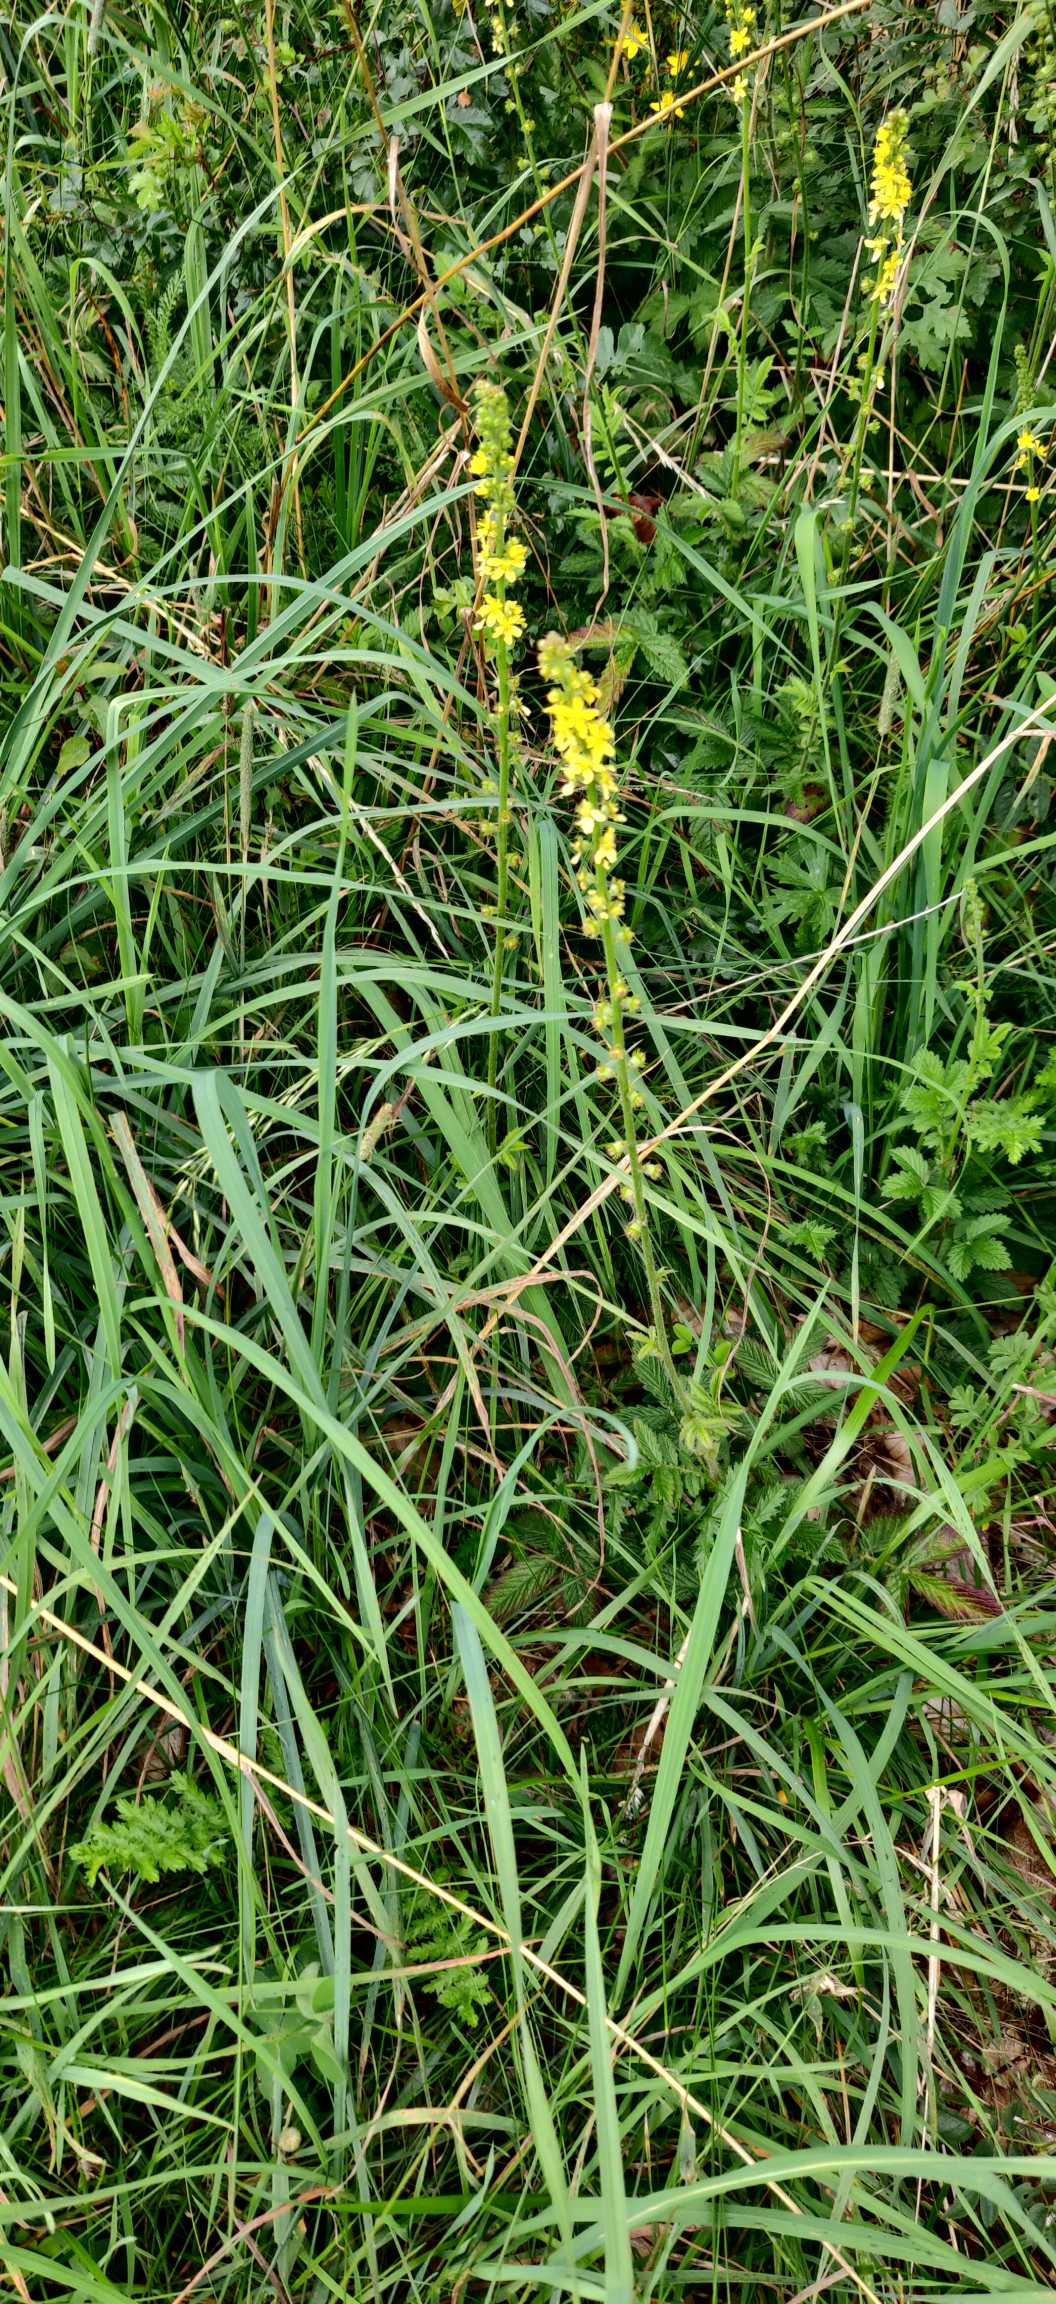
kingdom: Plantae
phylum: Tracheophyta
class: Magnoliopsida
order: Rosales
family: Rosaceae
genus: Agrimonia
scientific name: Agrimonia eupatoria
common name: Almindelig agermåne
